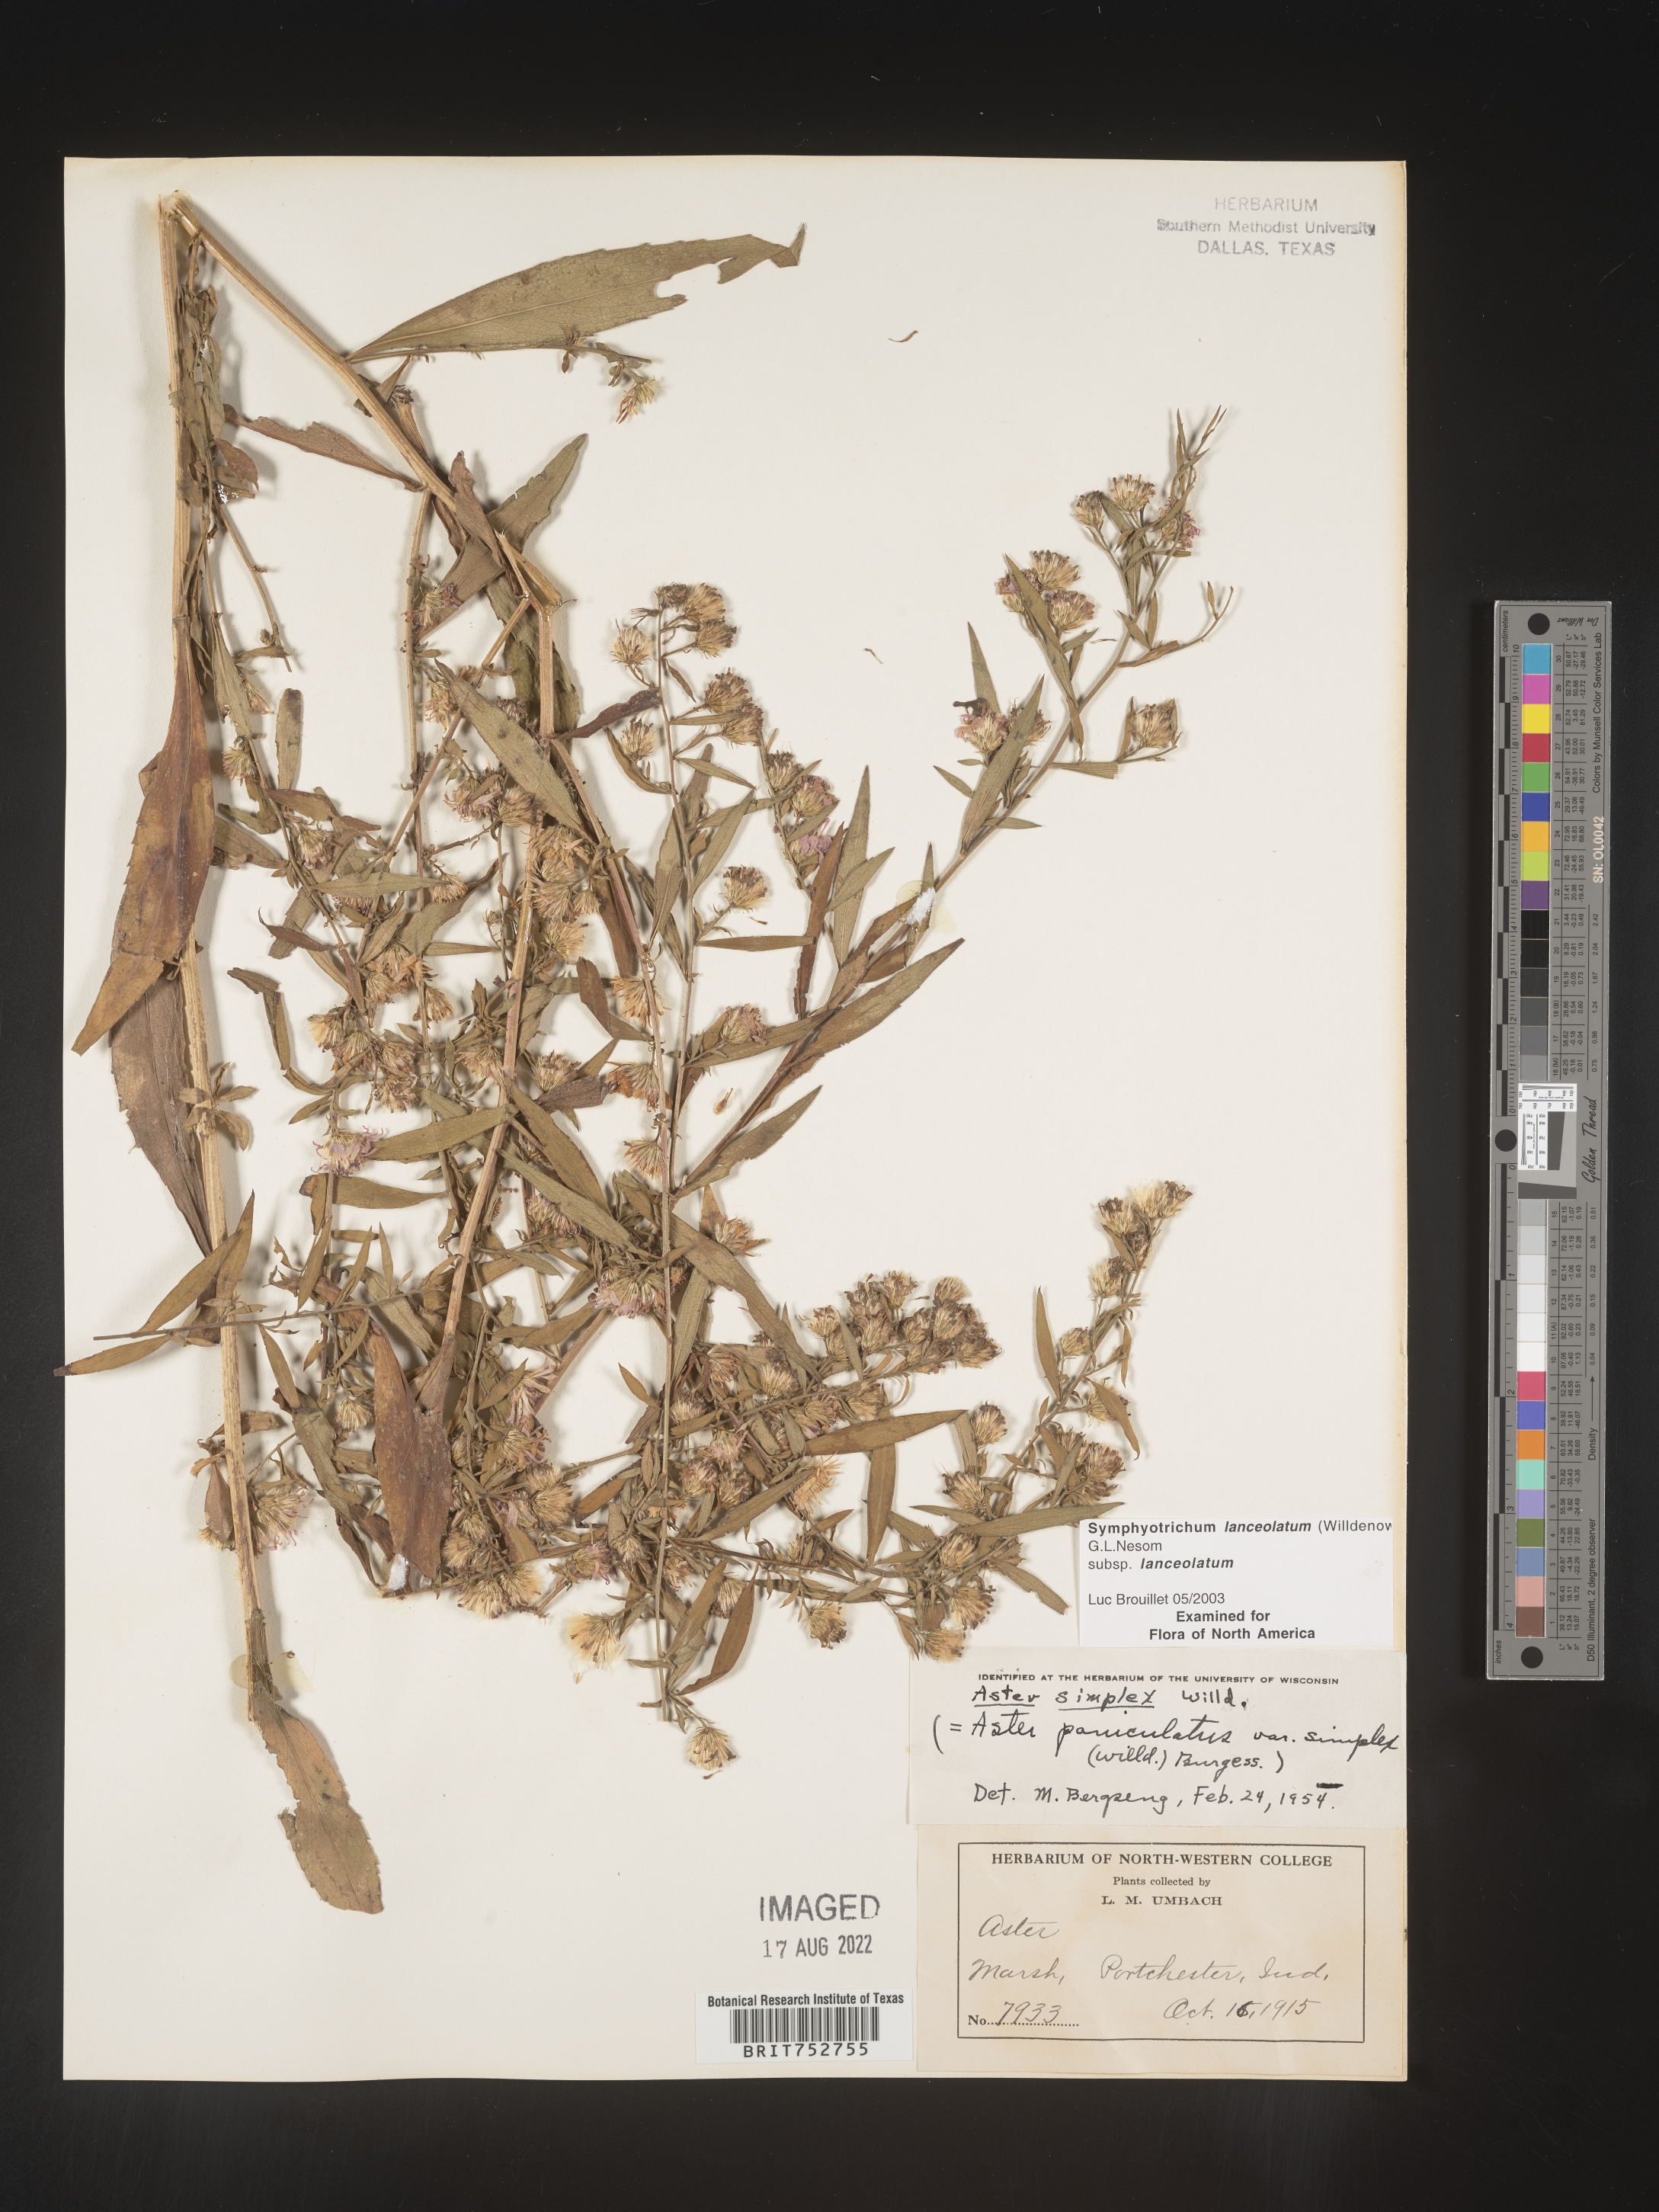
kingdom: Plantae
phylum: Tracheophyta
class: Magnoliopsida
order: Asterales
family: Asteraceae
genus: Symphyotrichum
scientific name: Symphyotrichum lanceolatum
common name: Panicled aster
